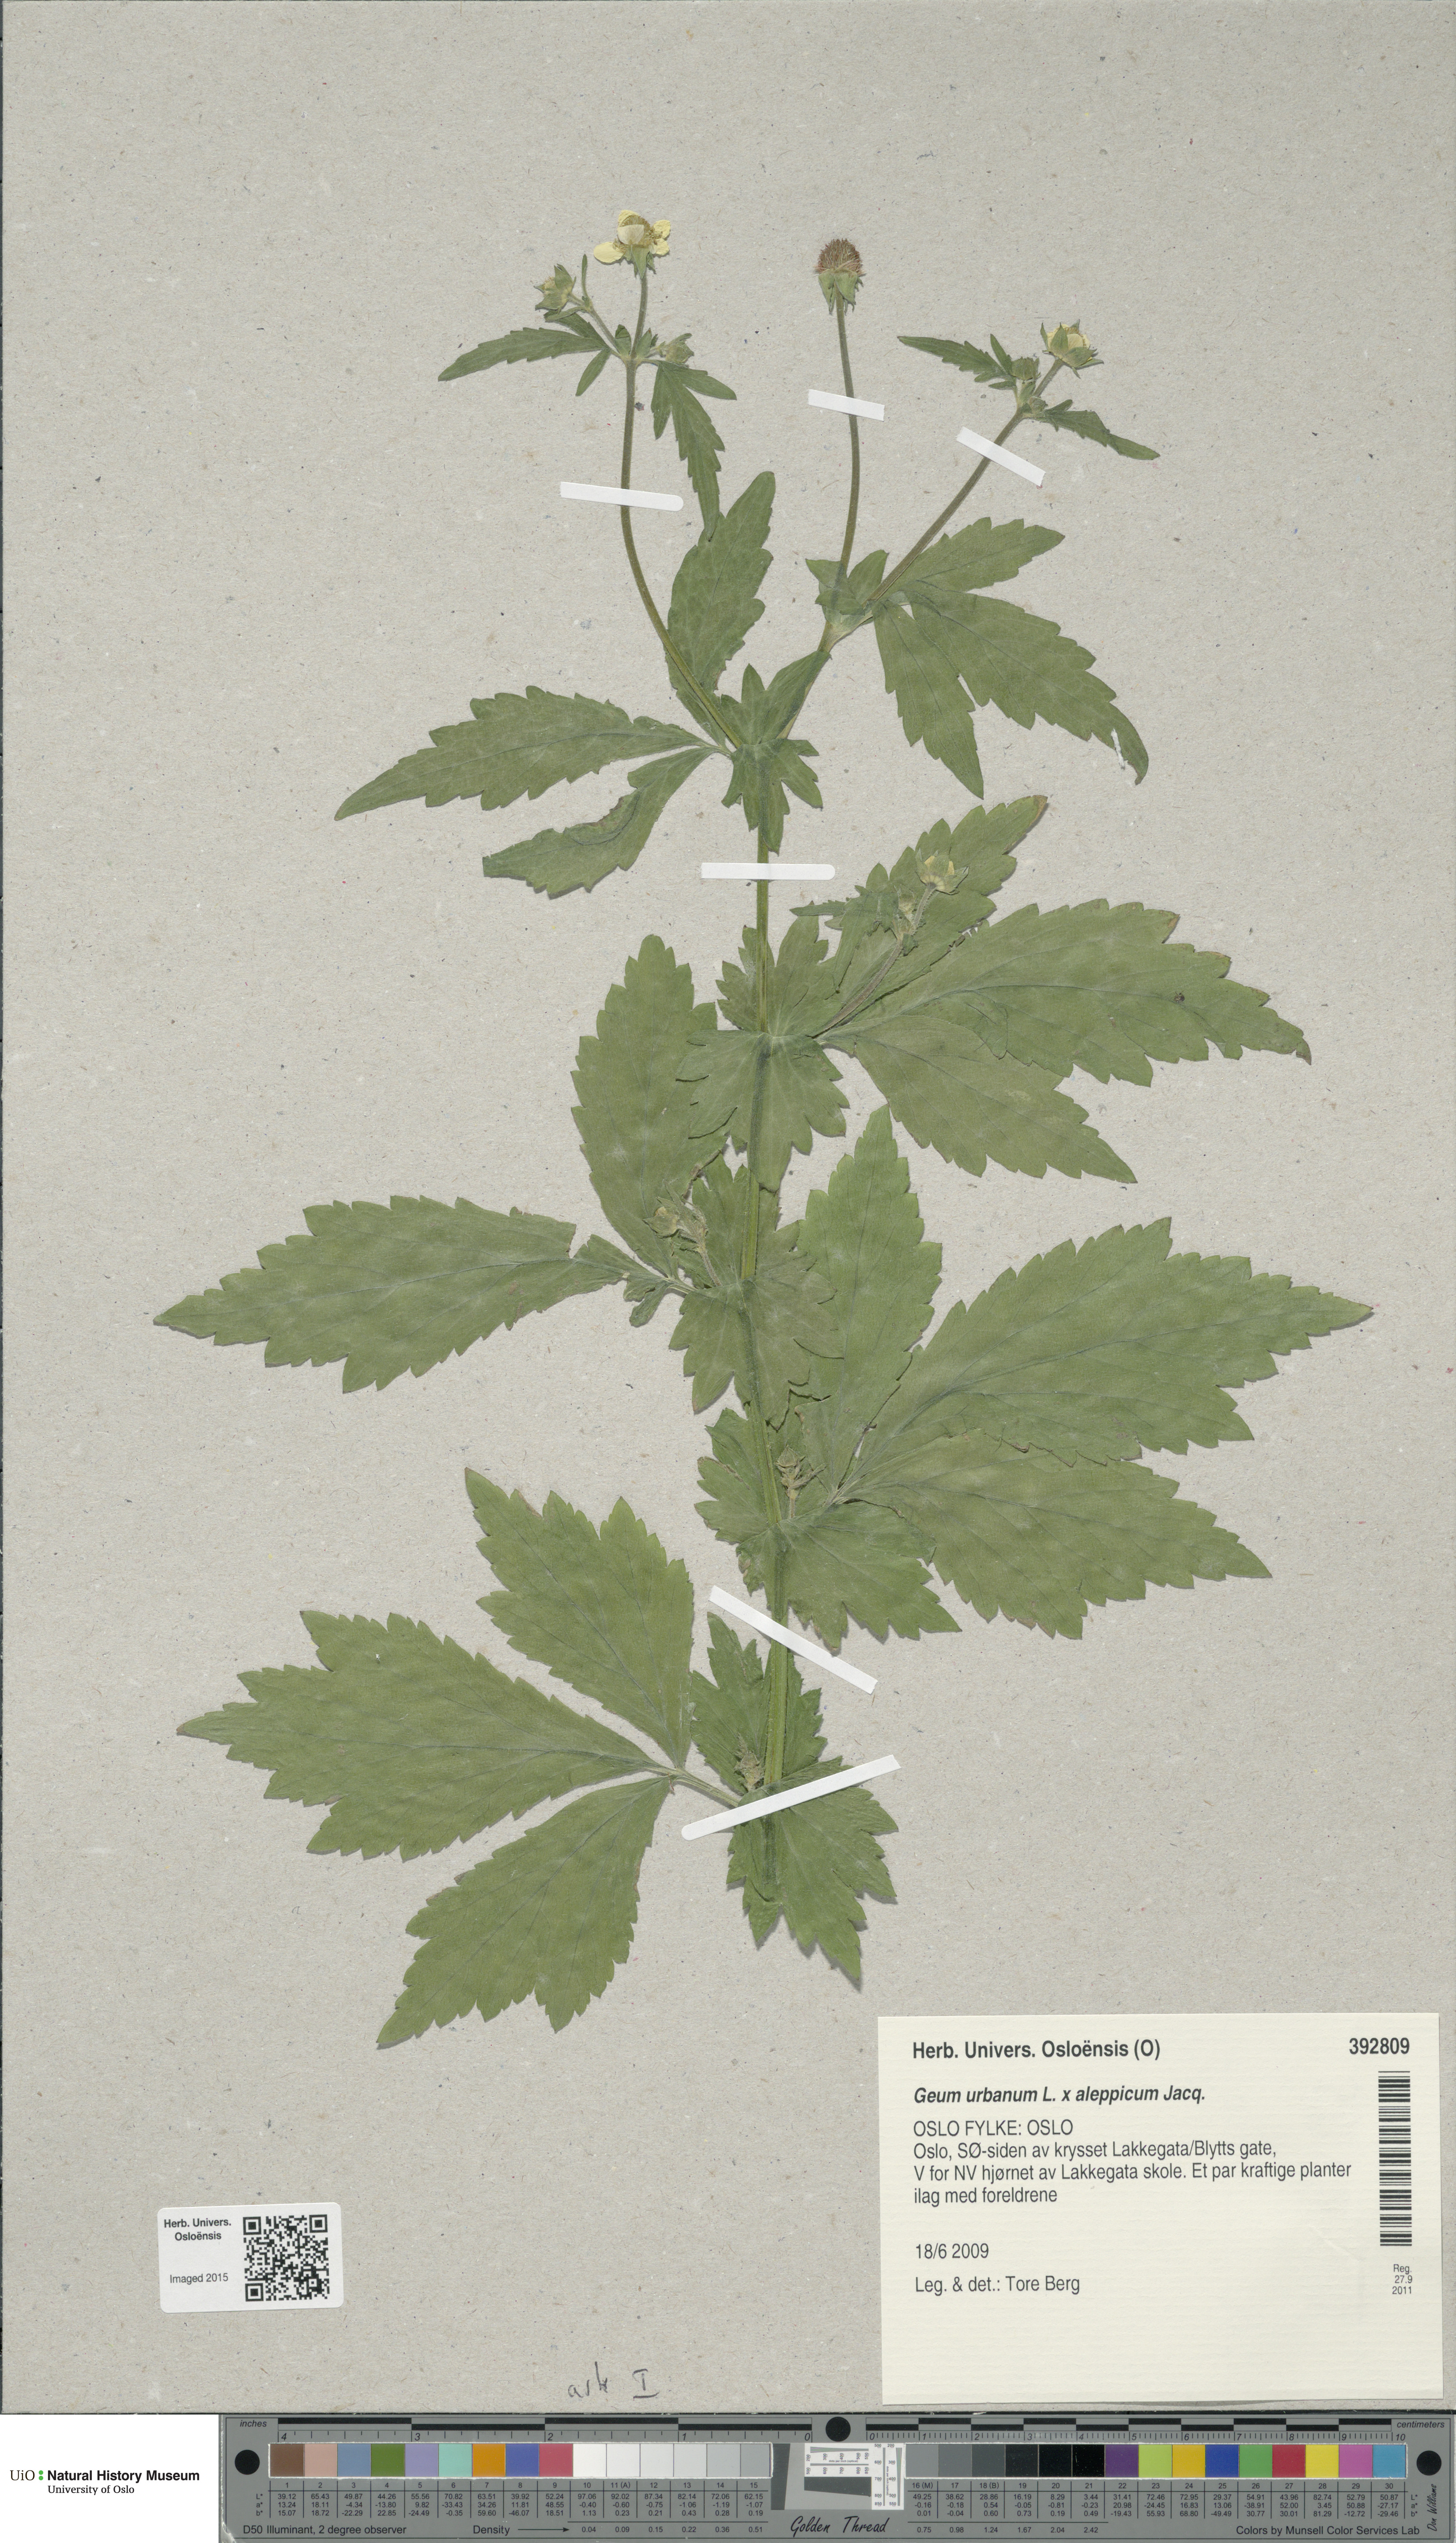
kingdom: Plantae
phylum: Tracheophyta
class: Magnoliopsida
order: Rosales
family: Rosaceae
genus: Geum
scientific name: Geum
